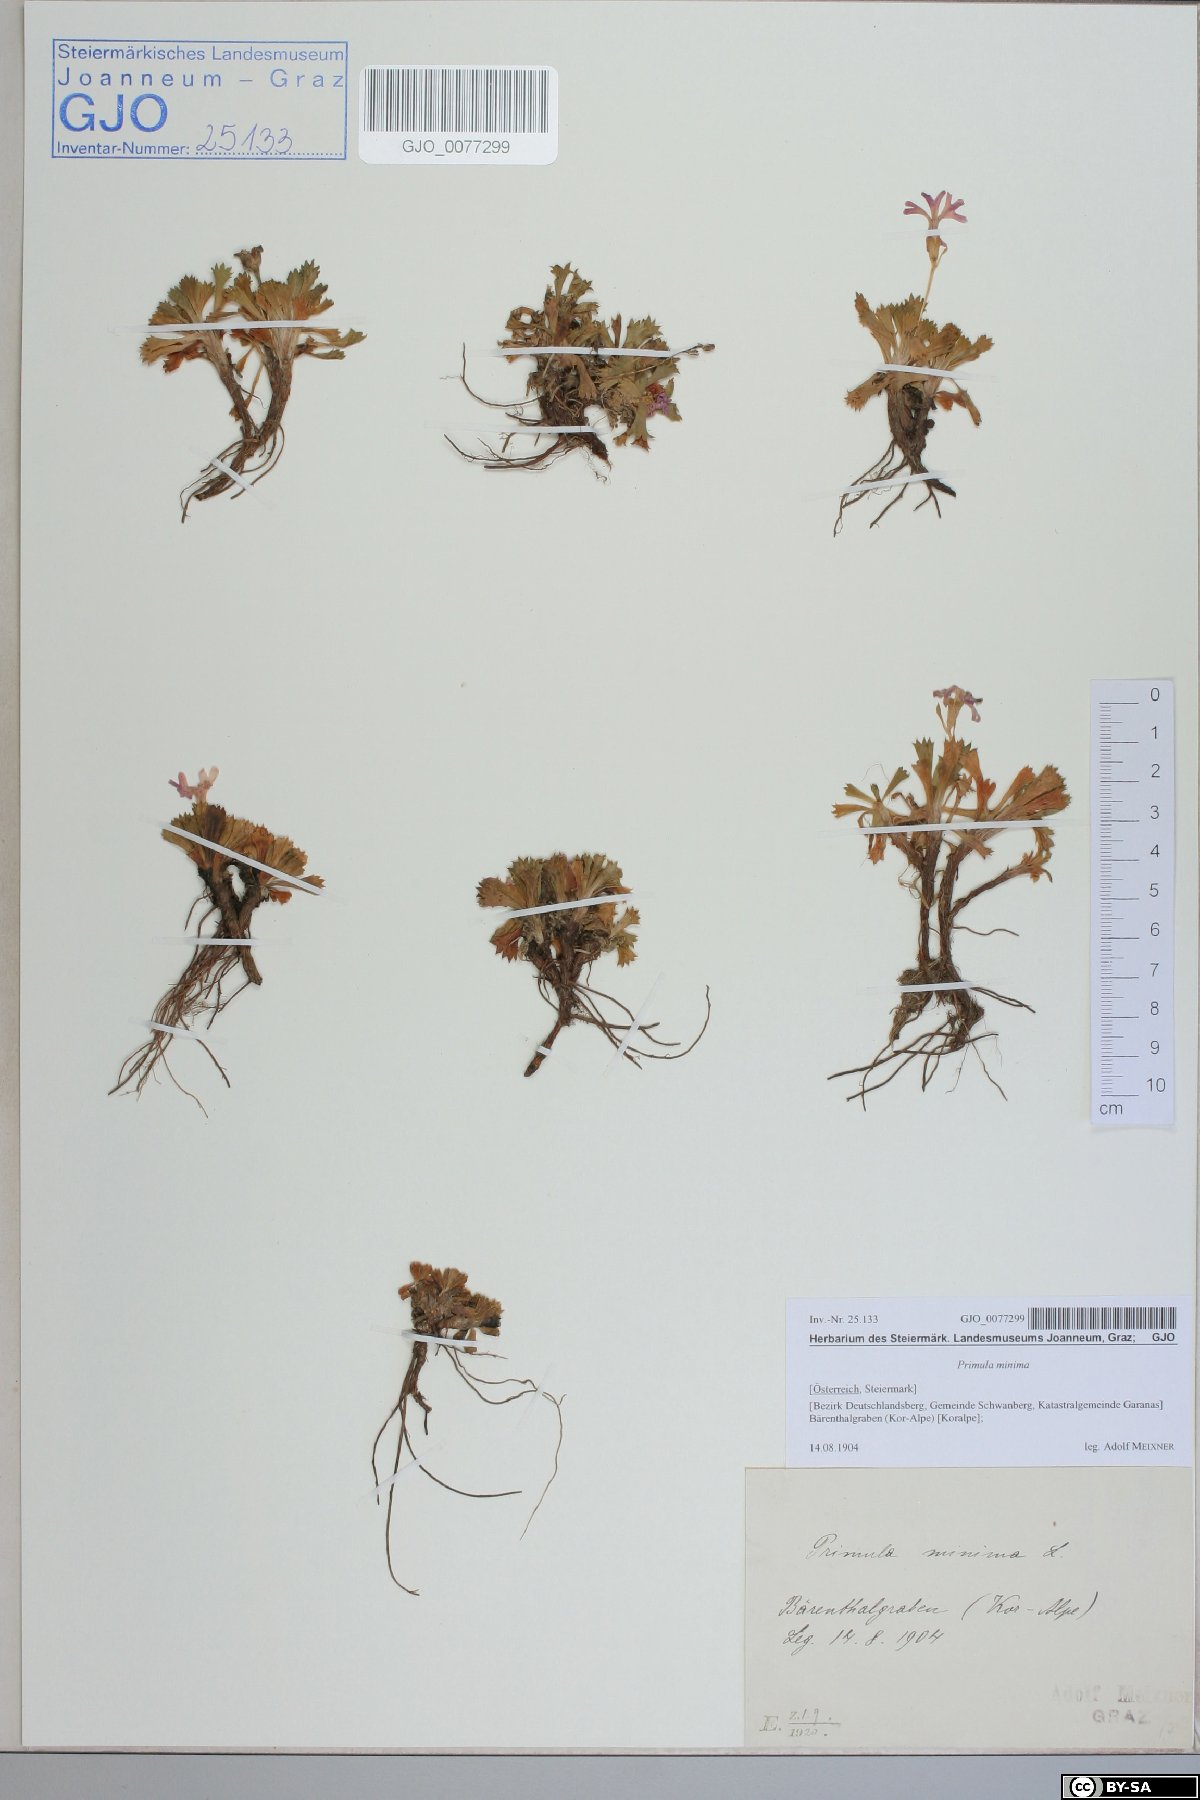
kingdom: Plantae
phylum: Tracheophyta
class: Magnoliopsida
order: Ericales
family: Primulaceae
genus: Primula
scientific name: Primula minima
